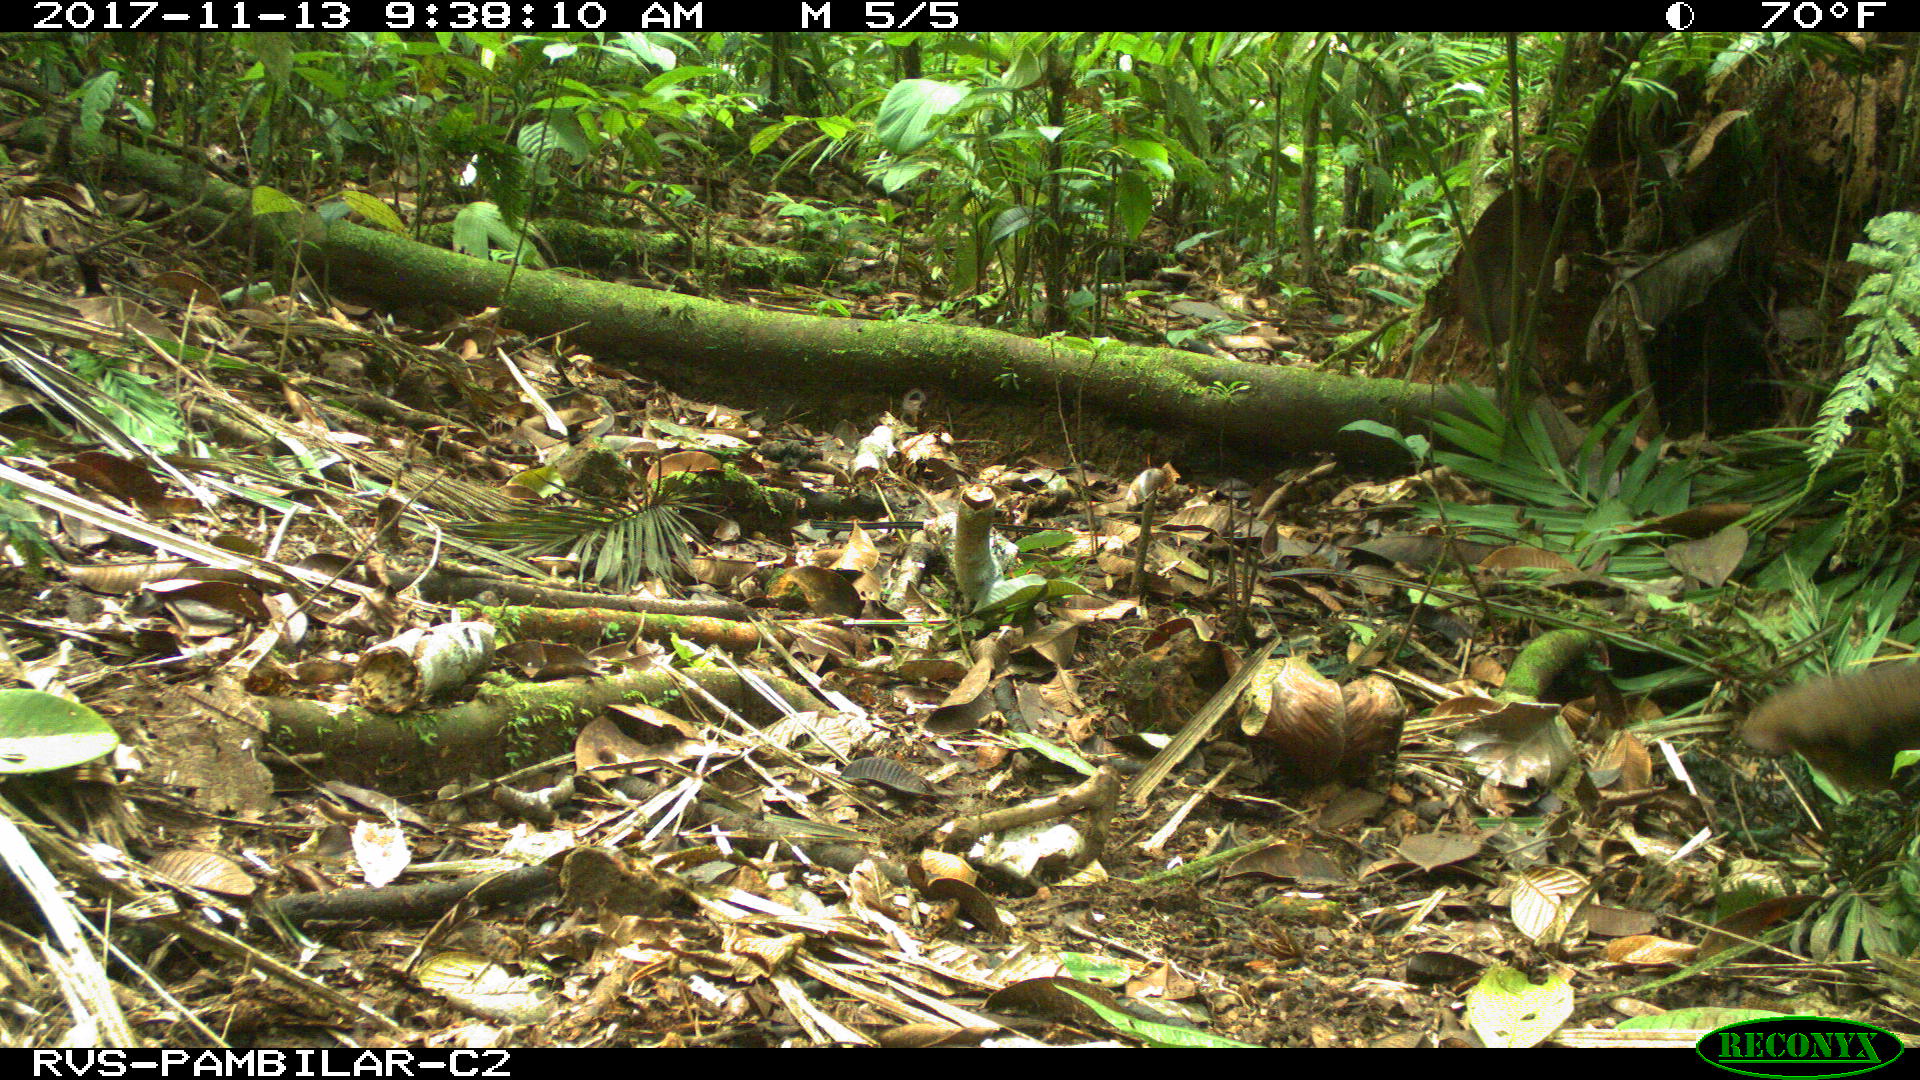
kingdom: Animalia
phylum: Chordata
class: Aves
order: Tinamiformes
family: Tinamidae
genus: Tinamus
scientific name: Tinamus major
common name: Great tinamou
